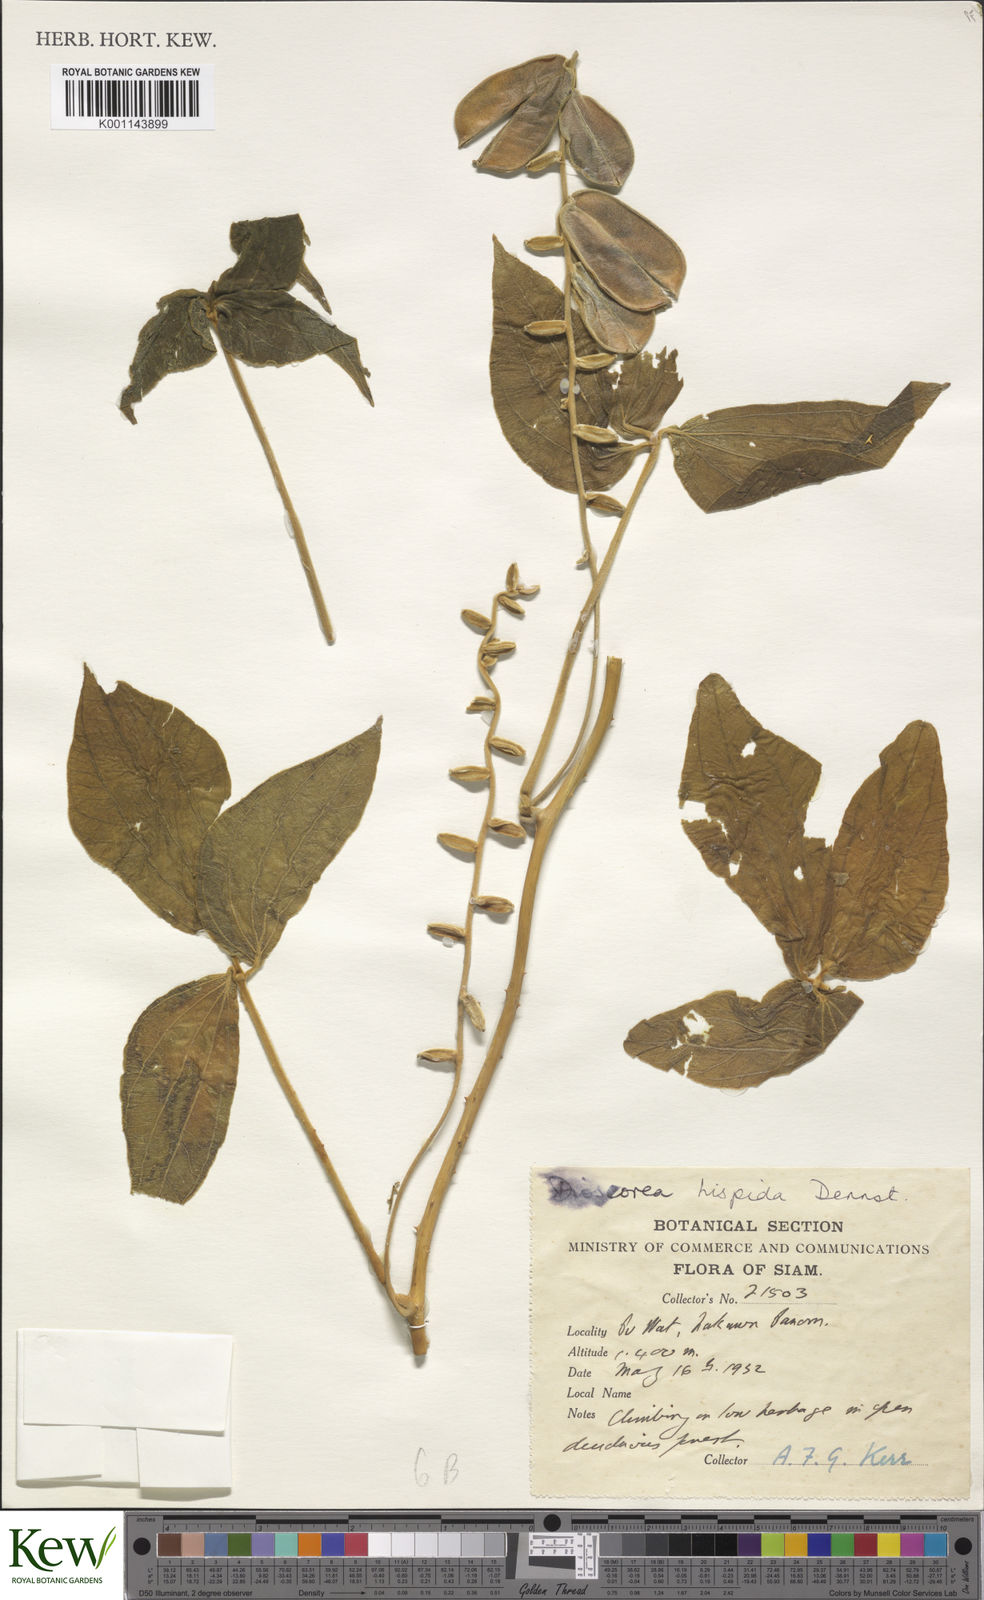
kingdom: Plantae
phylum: Tracheophyta
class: Liliopsida
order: Dioscoreales
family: Dioscoreaceae
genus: Dioscorea
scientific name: Dioscorea hispida
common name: Asiatic bitter yam
